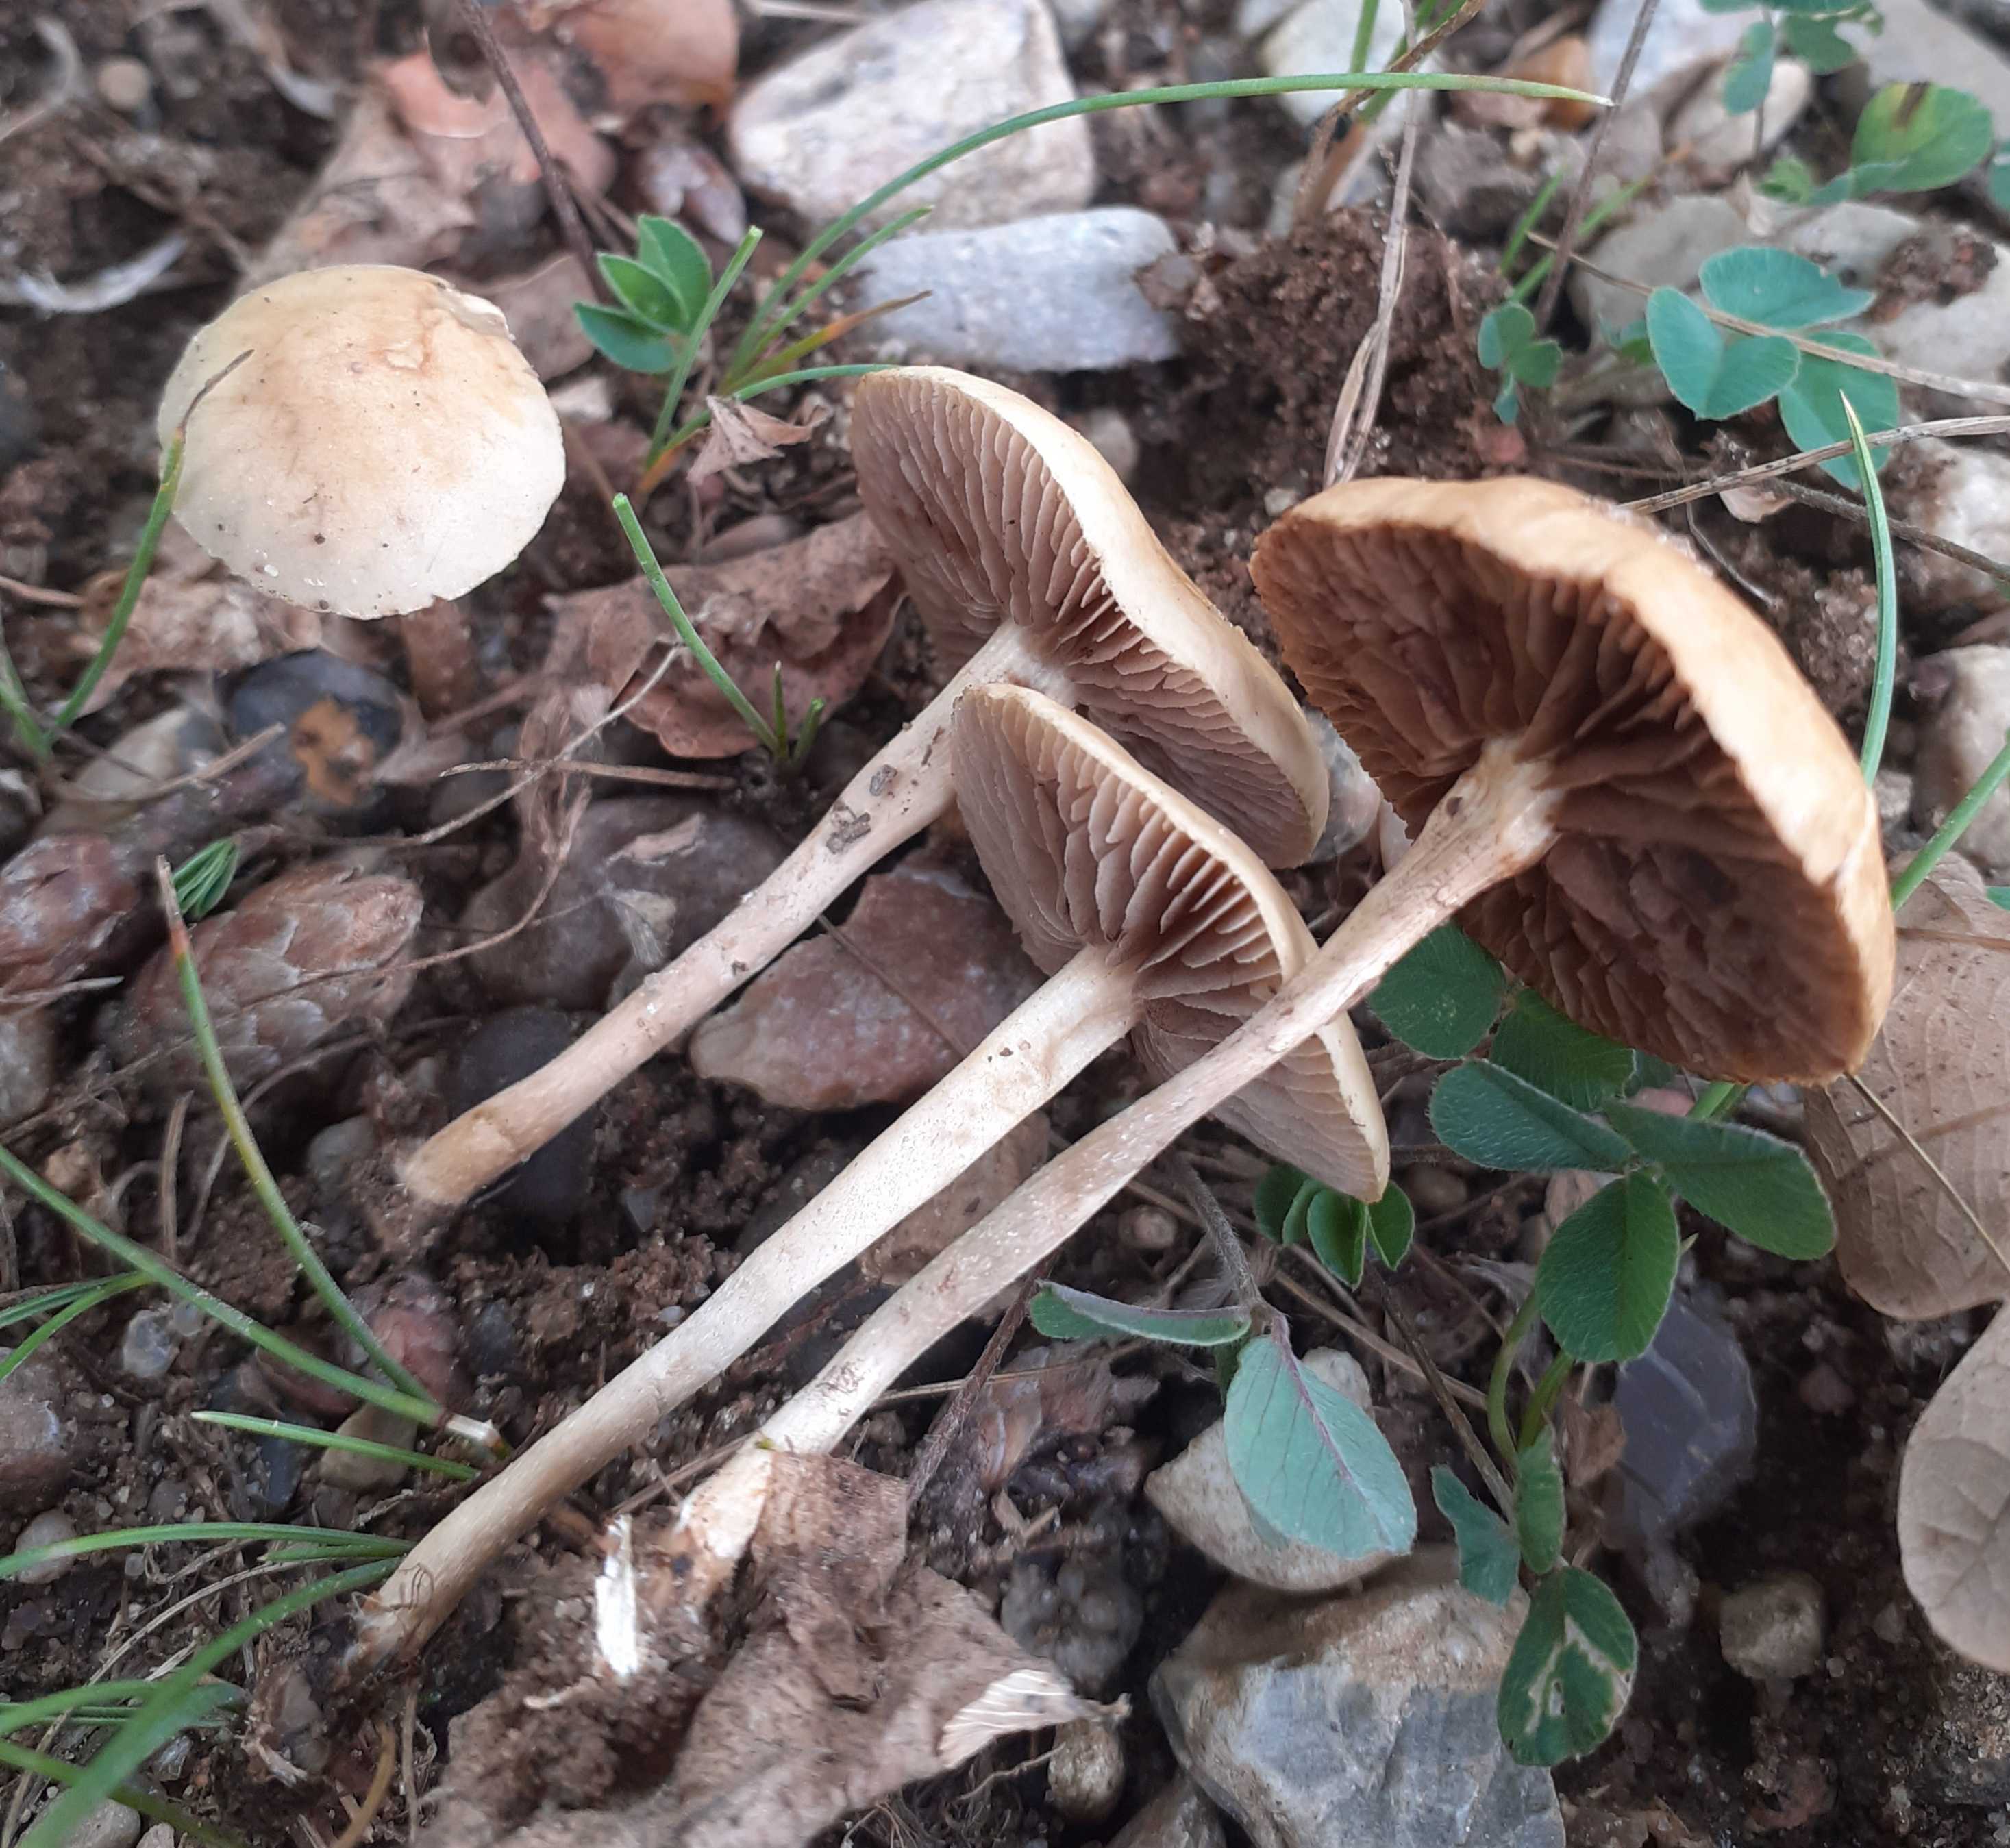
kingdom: Fungi
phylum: Basidiomycota
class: Agaricomycetes
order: Agaricales
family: Strophariaceae
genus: Agrocybe
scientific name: Agrocybe pediades
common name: almindelig agerhat
